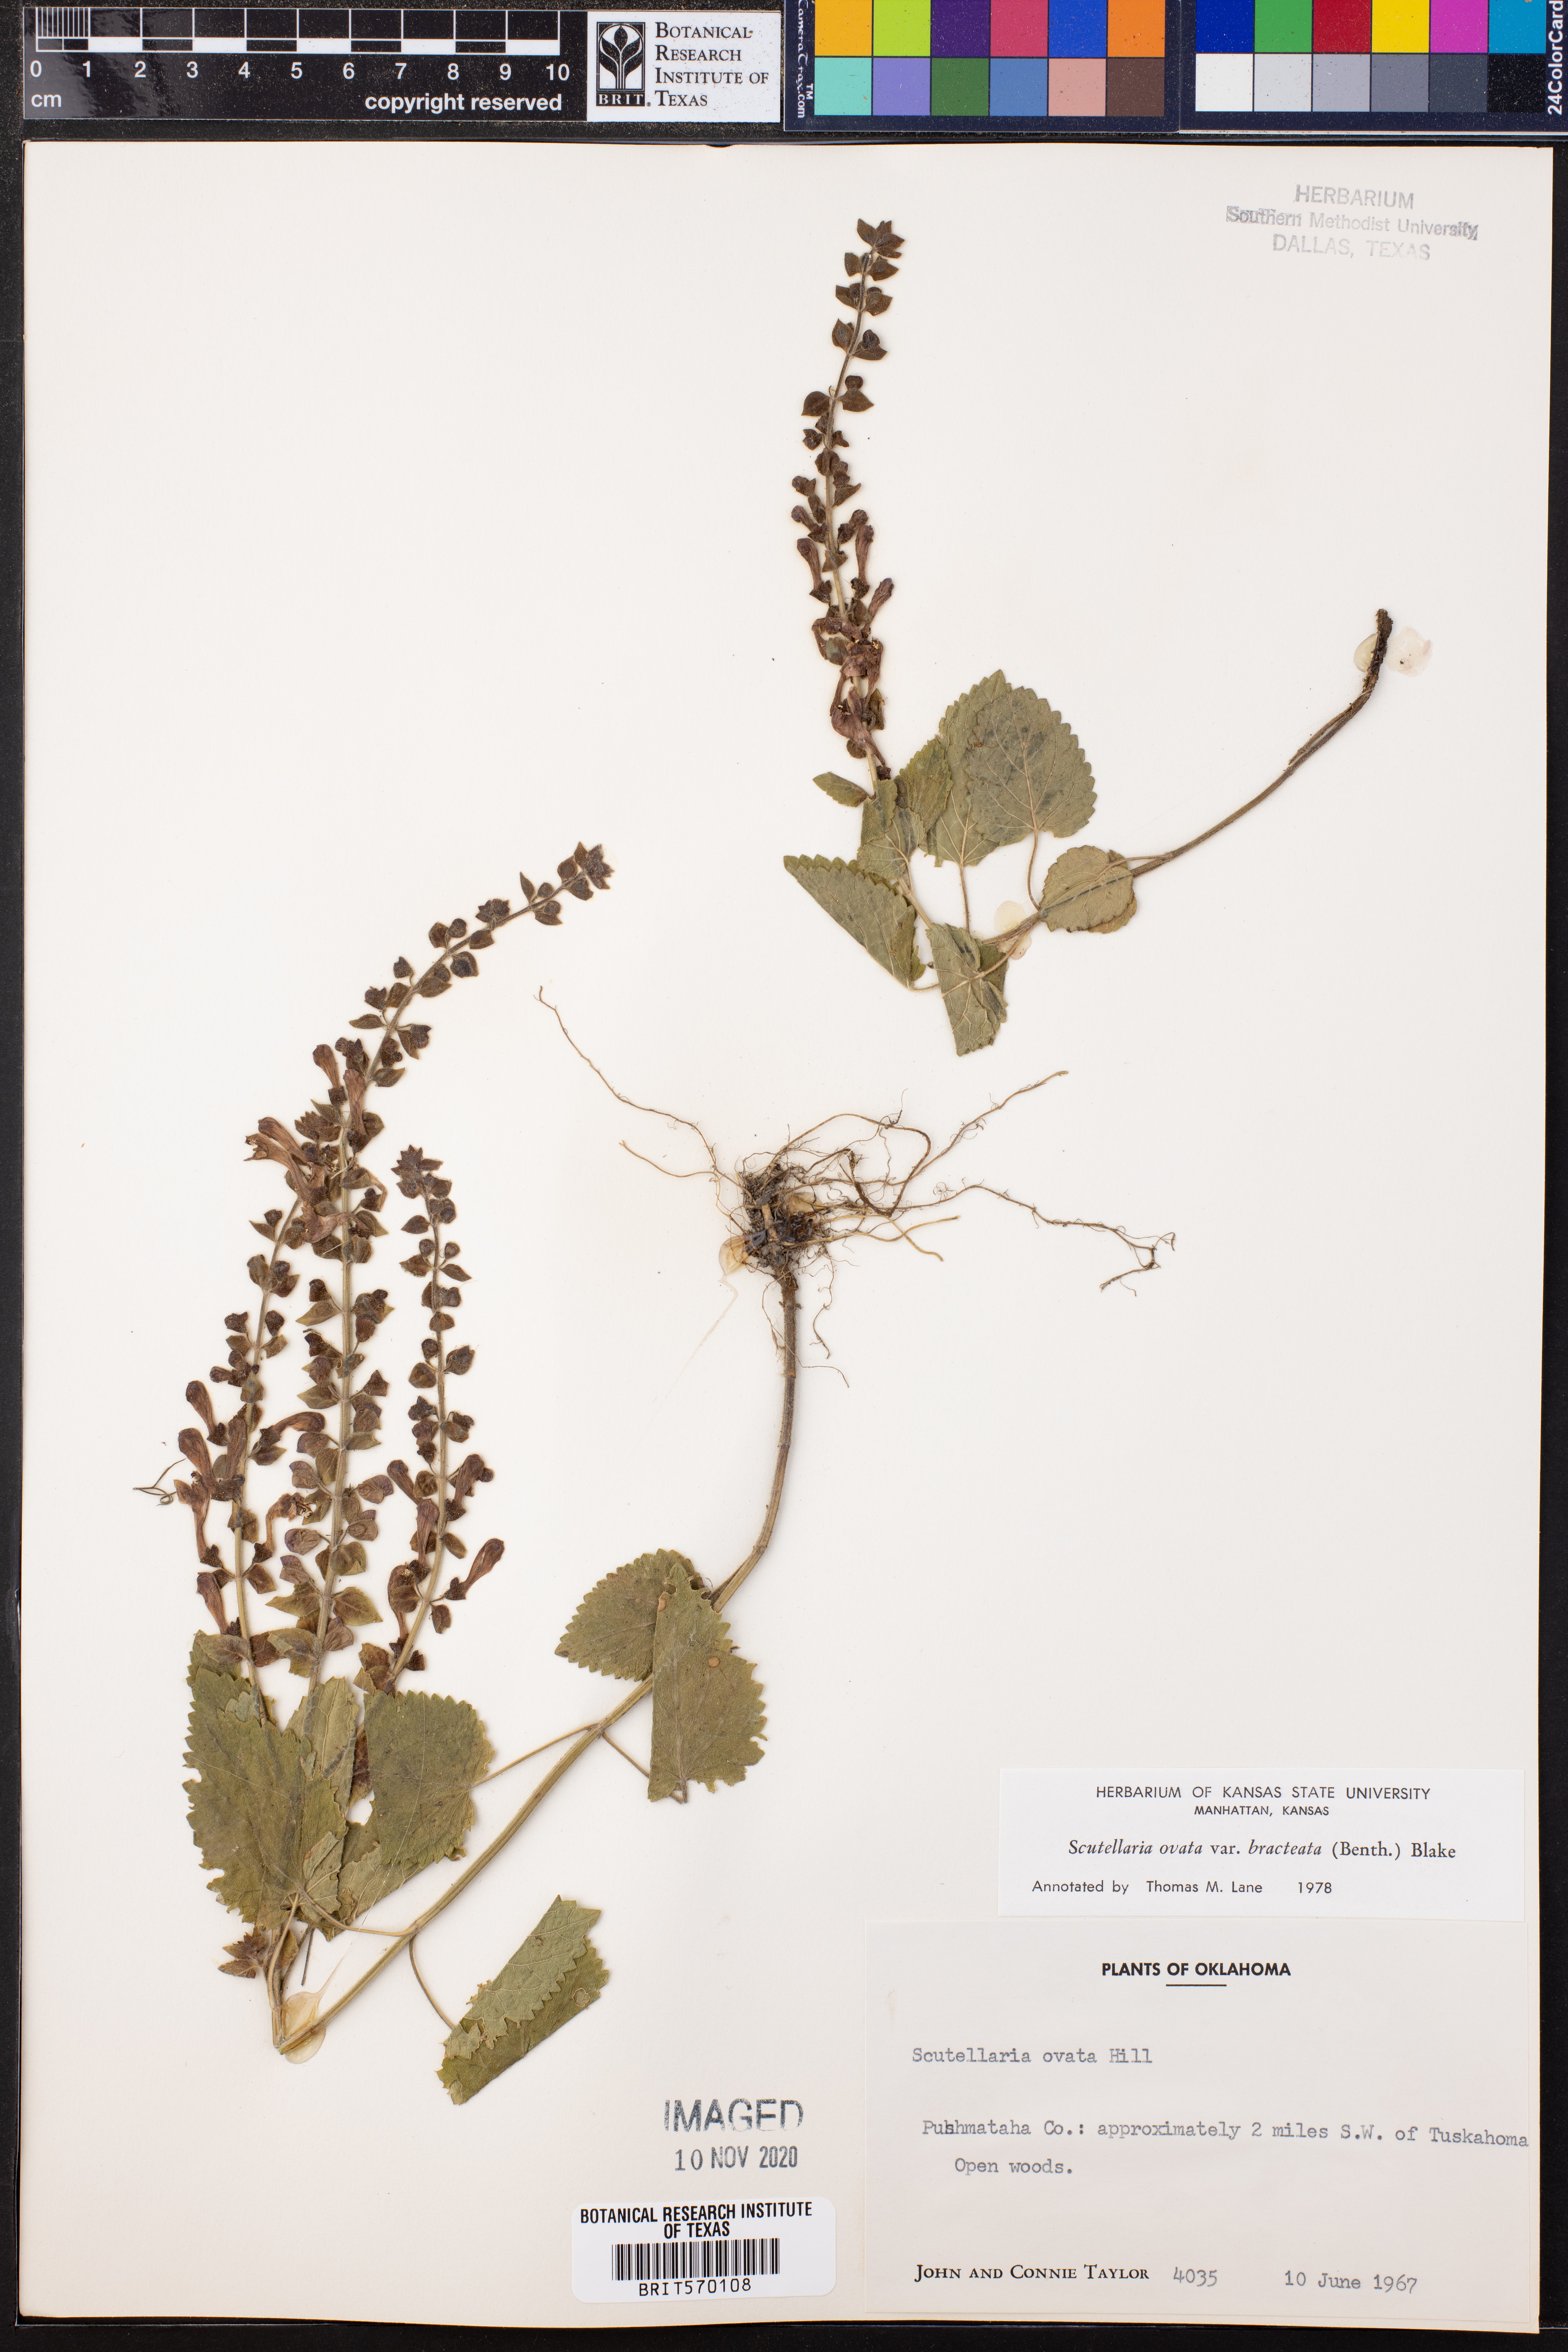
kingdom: Plantae
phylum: Tracheophyta
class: Magnoliopsida
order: Lamiales
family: Lamiaceae
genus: Scutellaria
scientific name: Scutellaria ovata
